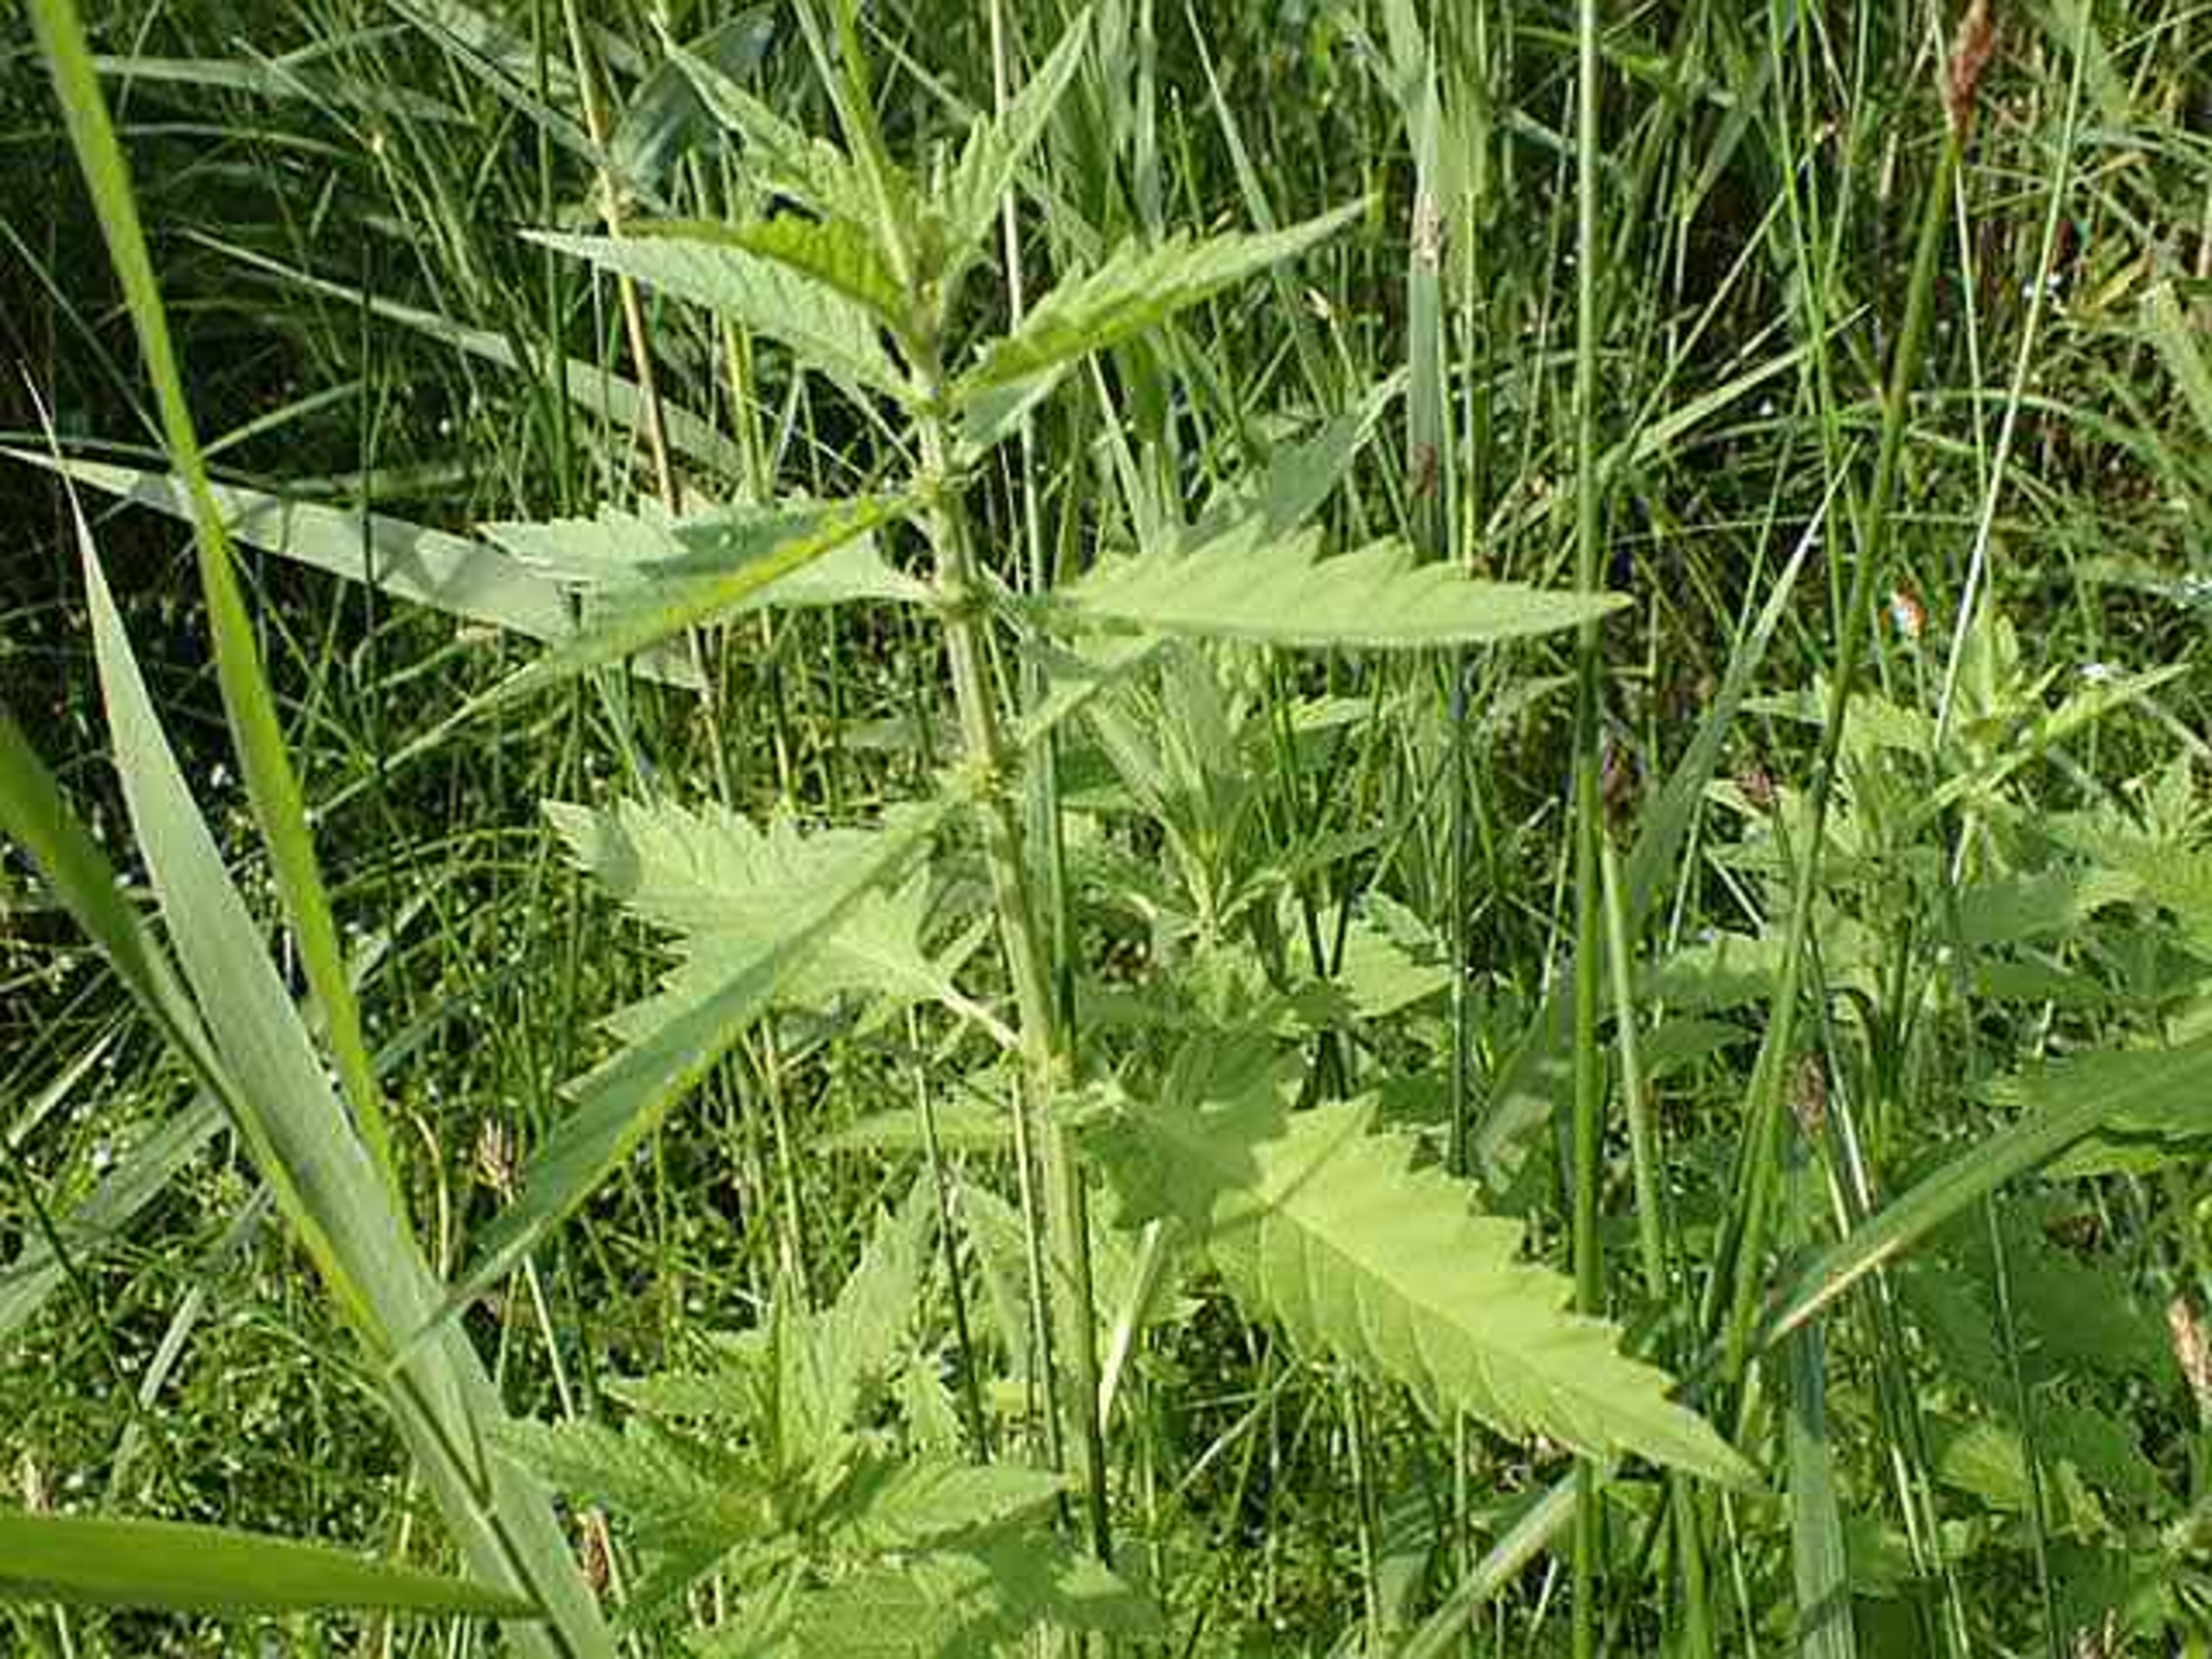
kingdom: Plantae
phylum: Tracheophyta
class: Magnoliopsida
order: Lamiales
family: Lamiaceae
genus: Lycopus
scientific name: Lycopus europaeus
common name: Sværtevæld
